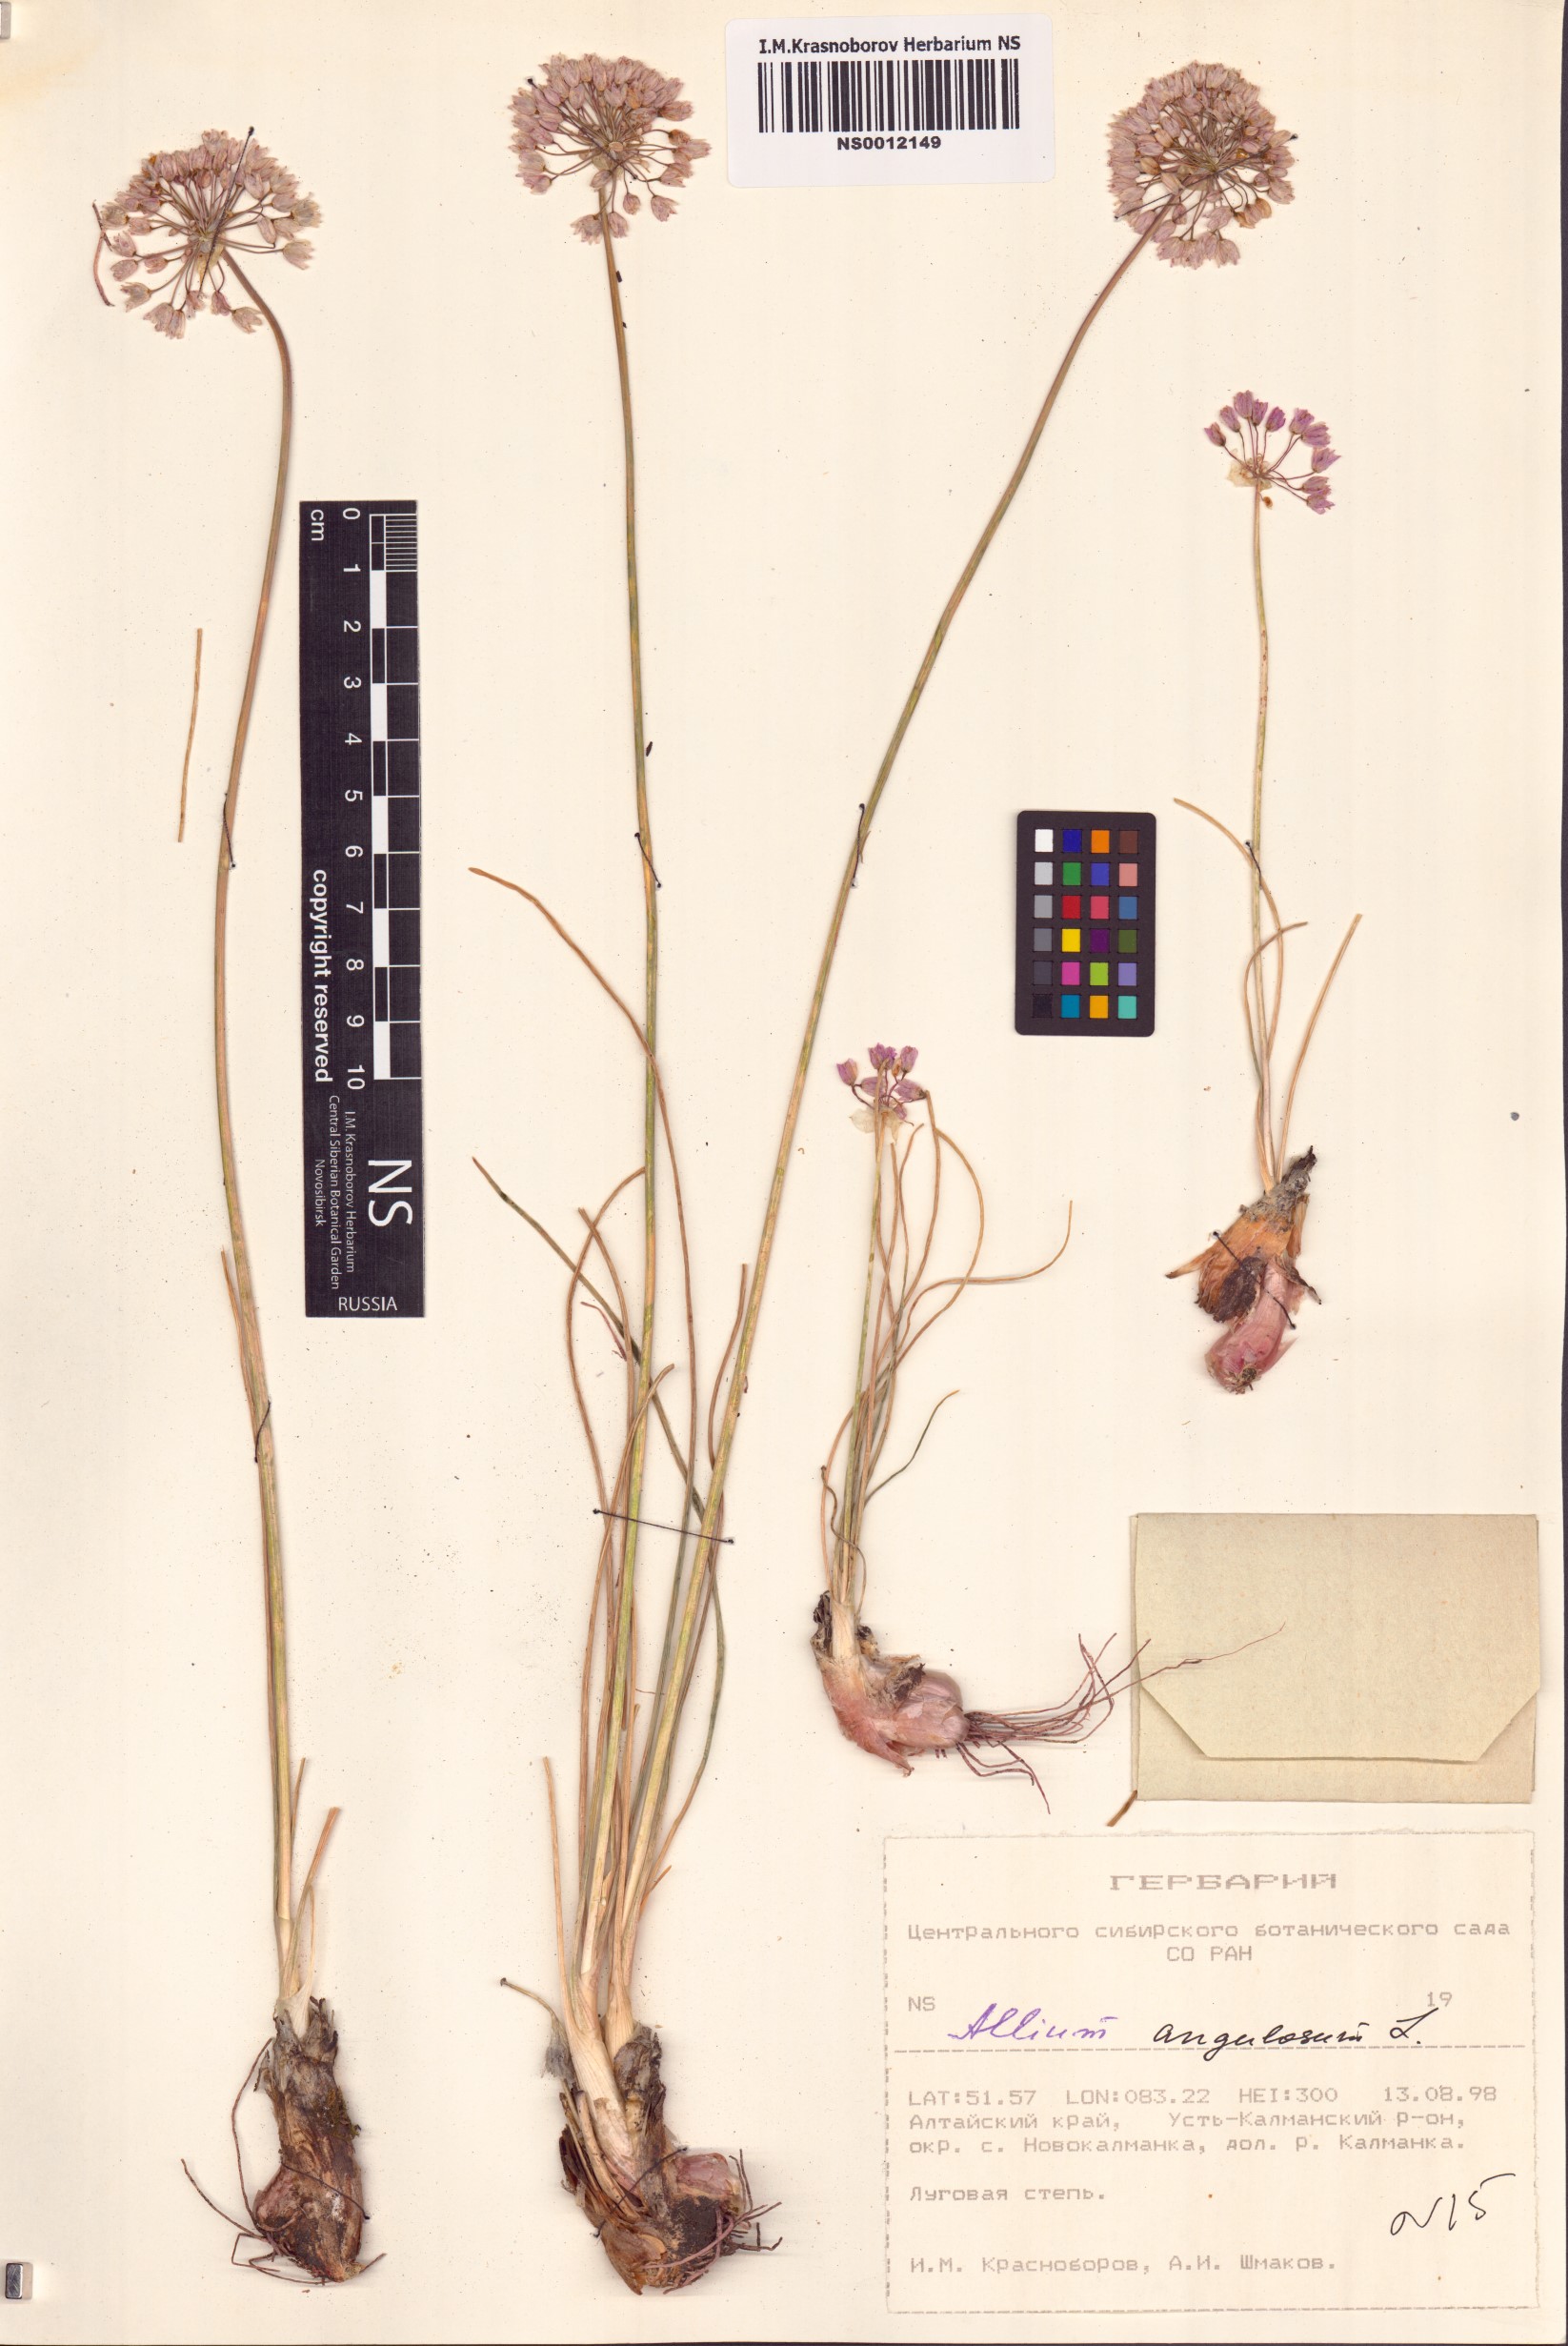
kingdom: Plantae
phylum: Tracheophyta
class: Liliopsida
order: Asparagales
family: Amaryllidaceae
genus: Allium
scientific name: Allium angulosum
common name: Mouse garlic
